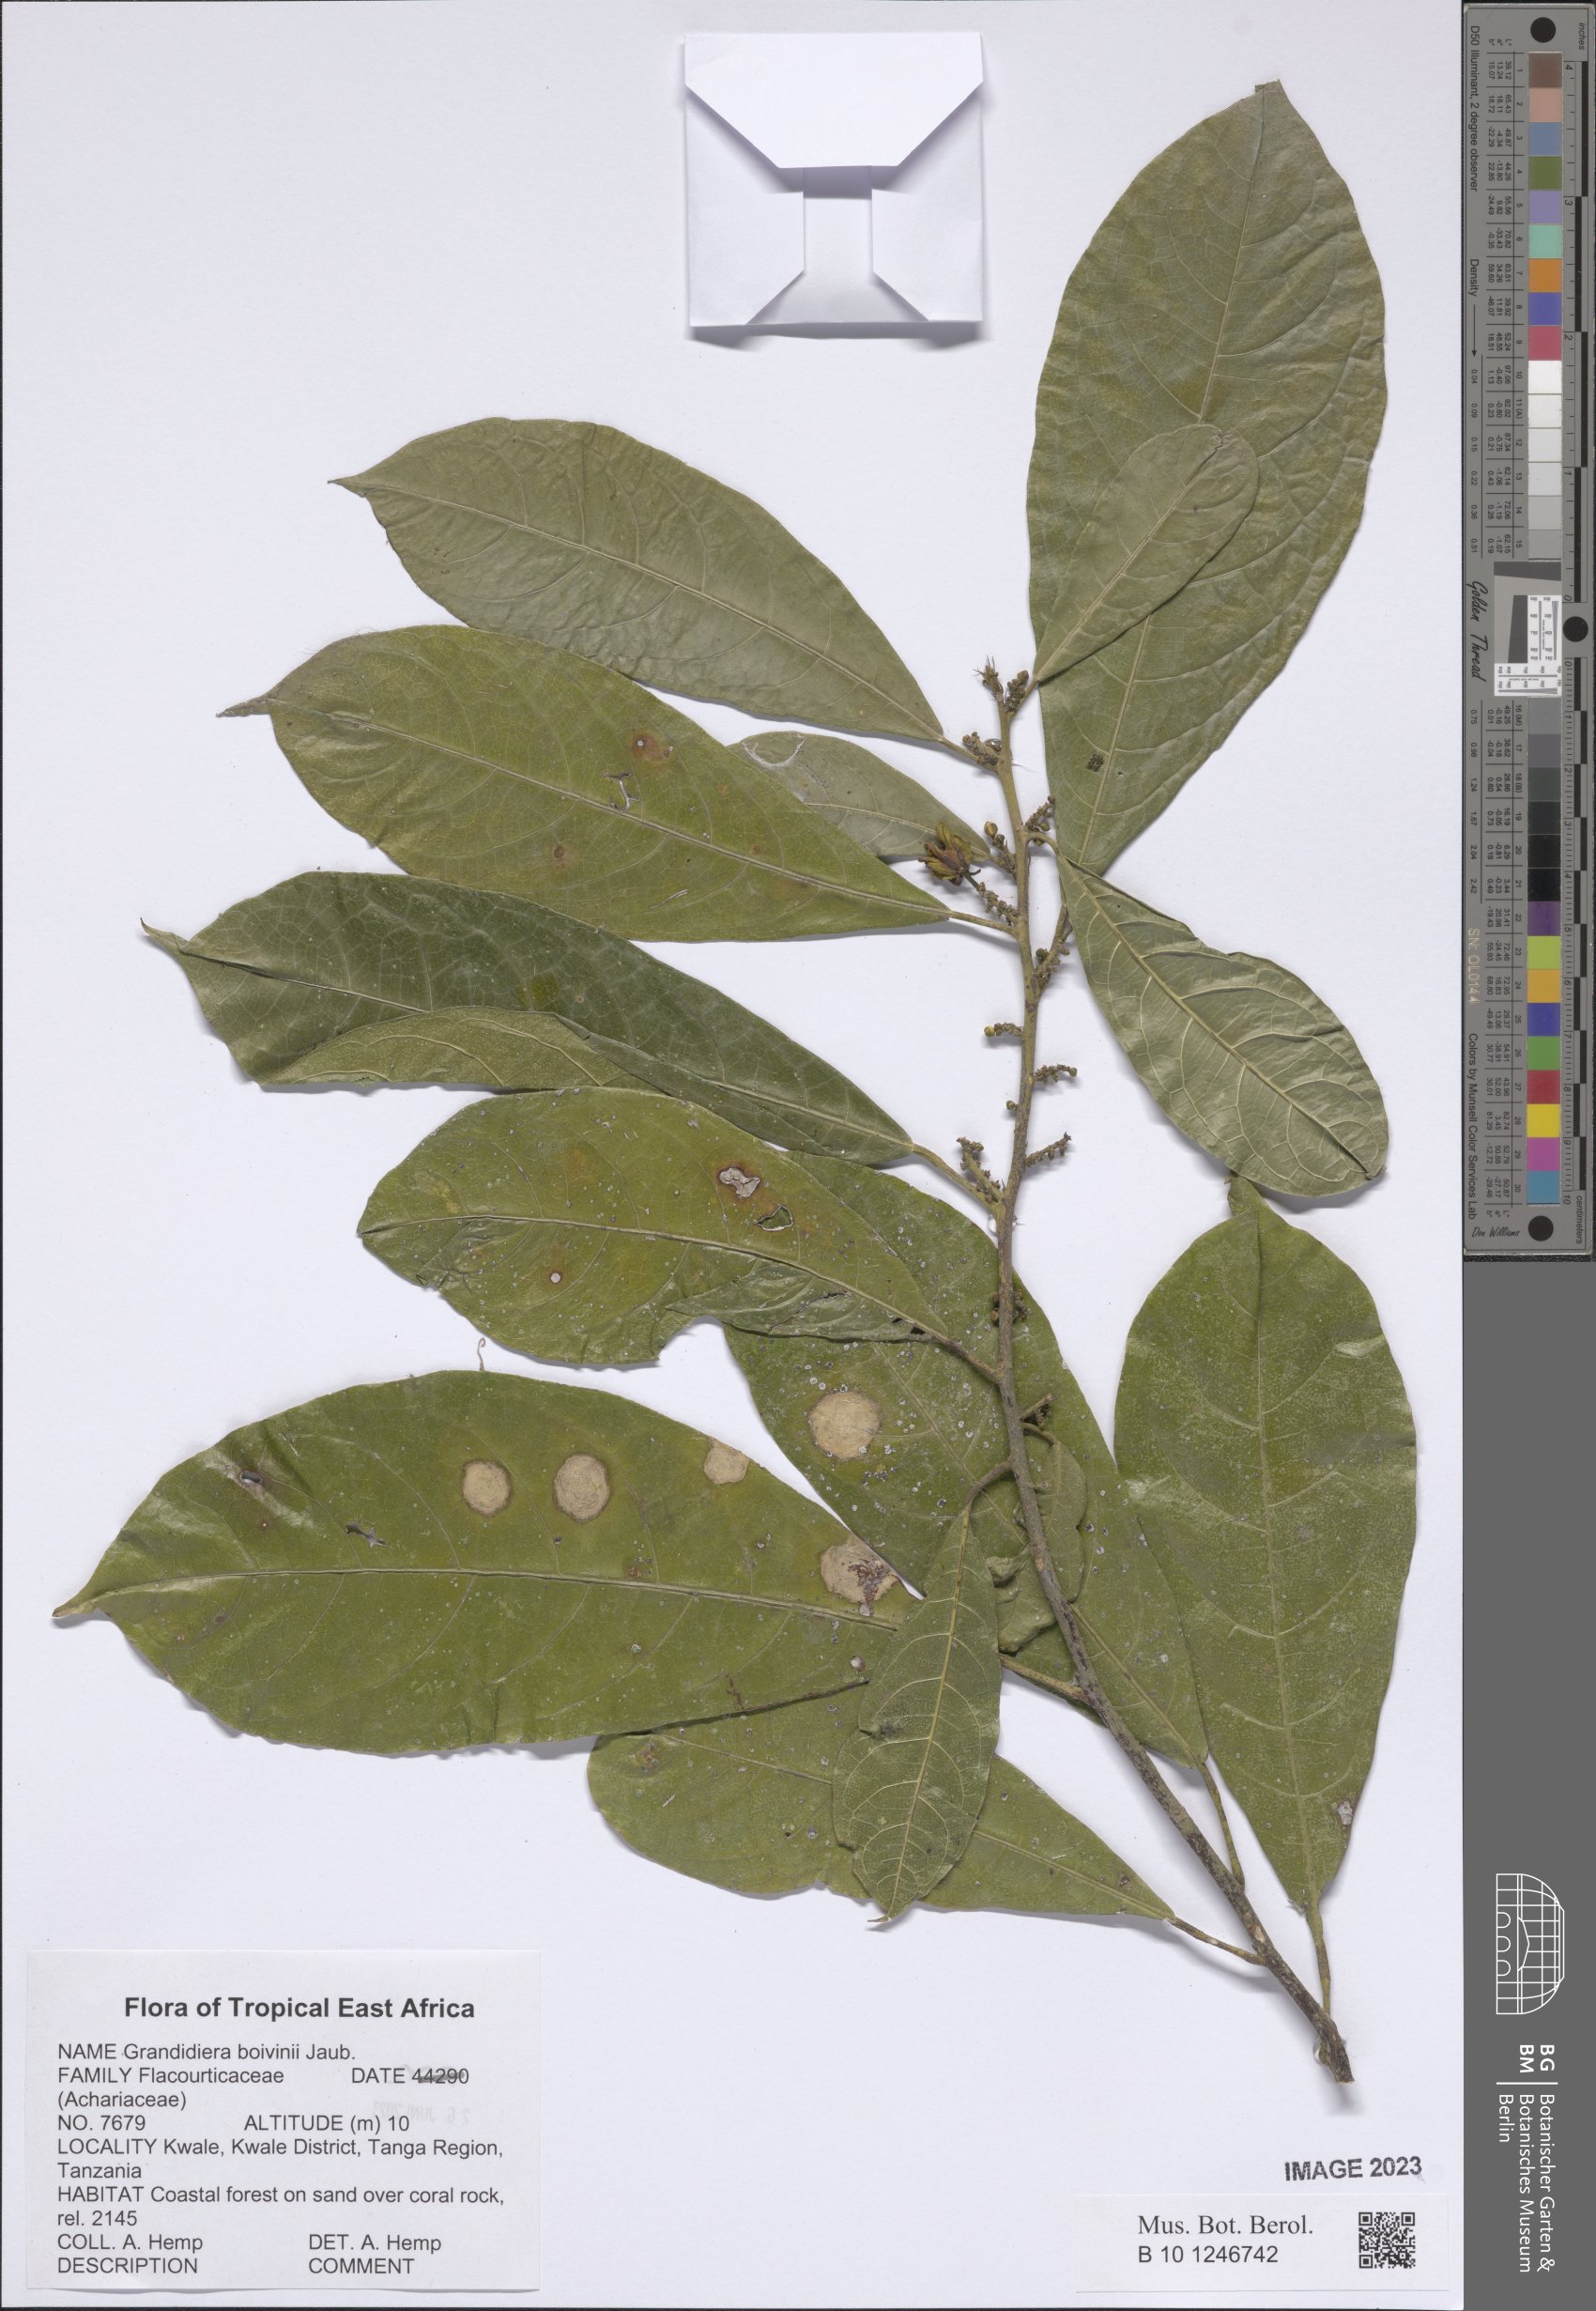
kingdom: Plantae
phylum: Tracheophyta
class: Magnoliopsida
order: Malpighiales
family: Achariaceae
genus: Grandidiera
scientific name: Grandidiera boivinii
